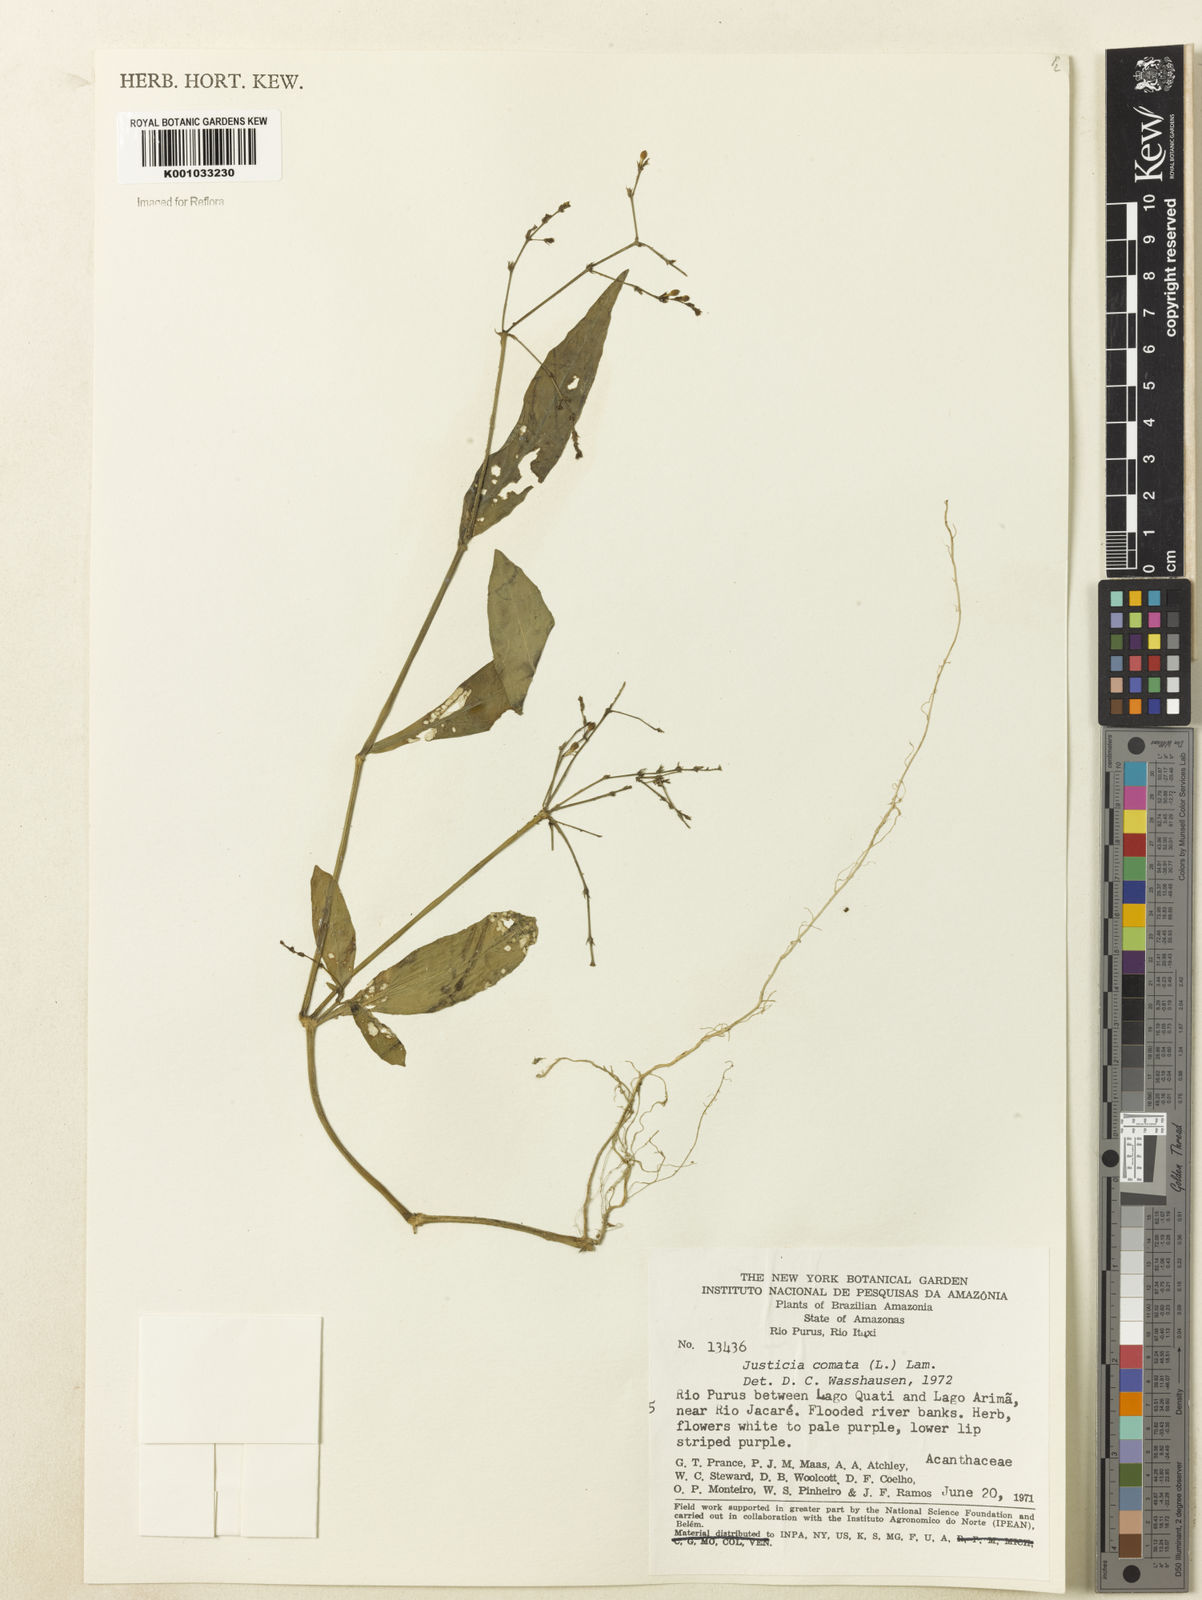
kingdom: Plantae
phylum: Tracheophyta
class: Magnoliopsida
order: Lamiales
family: Acanthaceae
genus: Dianthera
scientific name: Dianthera comata
